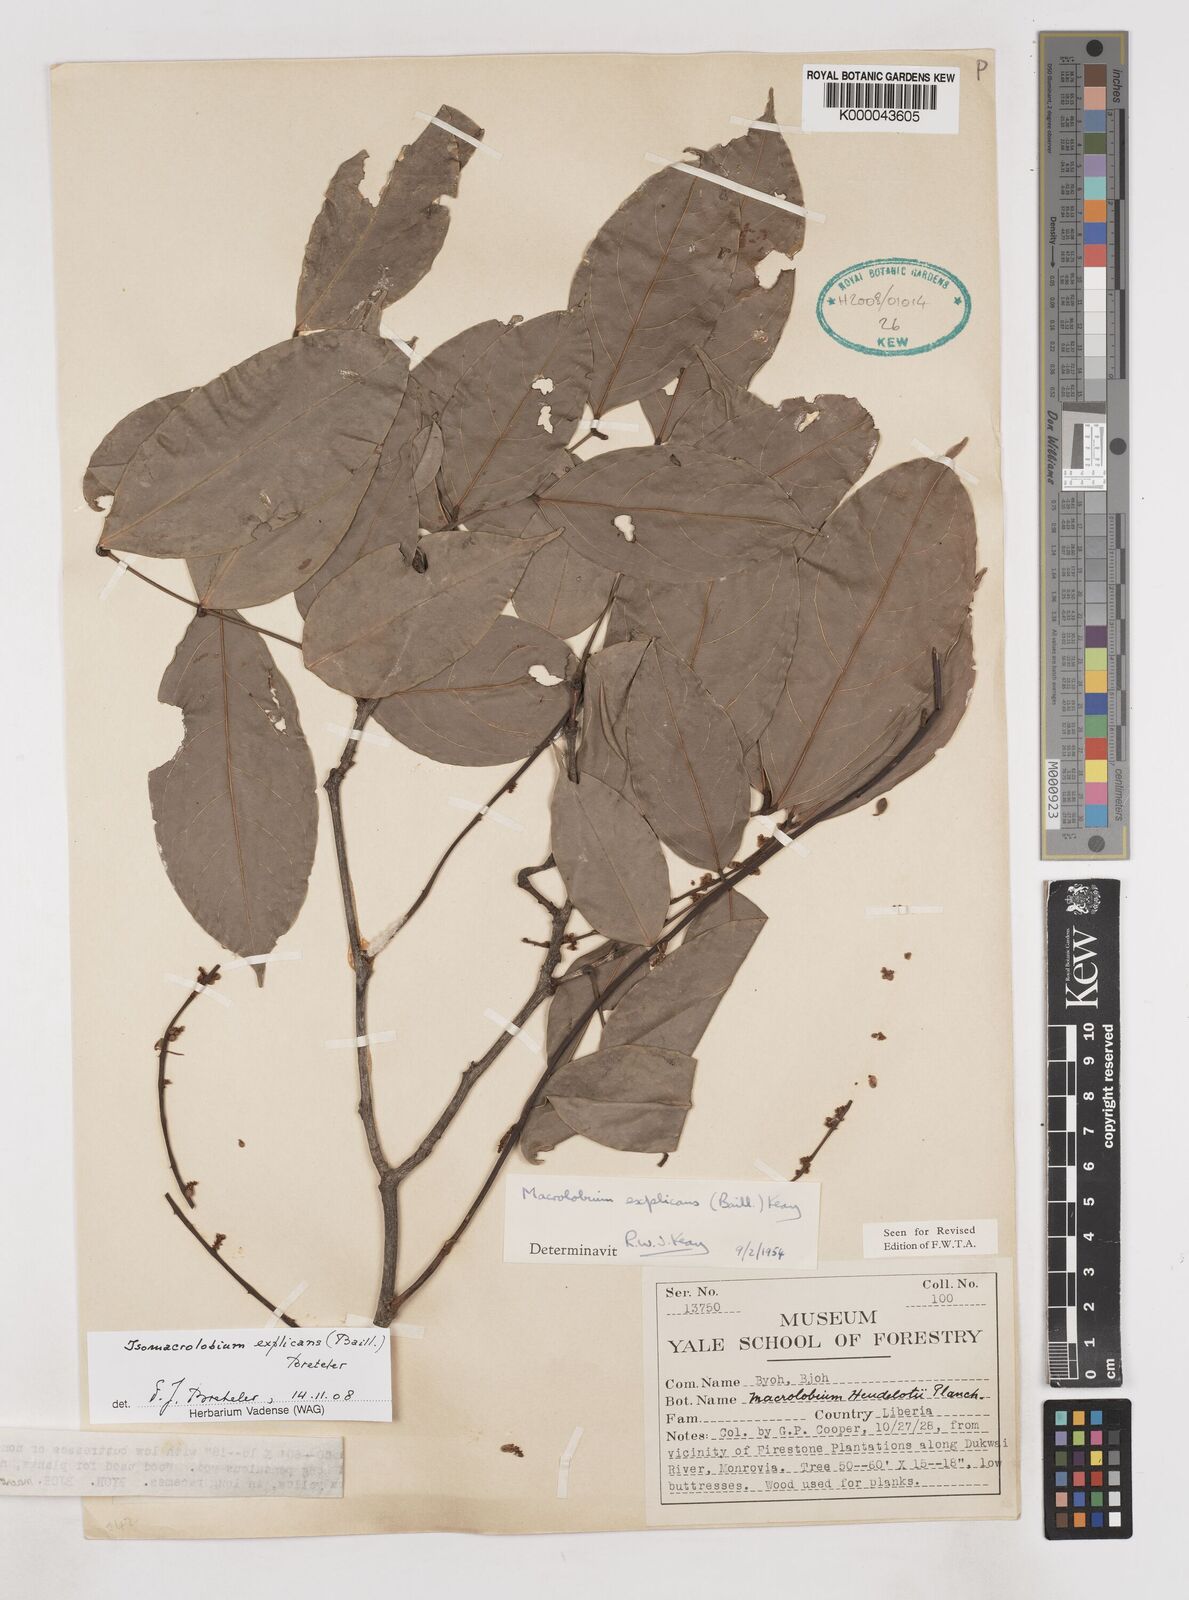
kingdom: Plantae
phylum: Tracheophyta
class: Magnoliopsida
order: Fabales
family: Fabaceae
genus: Anthonotha
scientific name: Anthonotha
